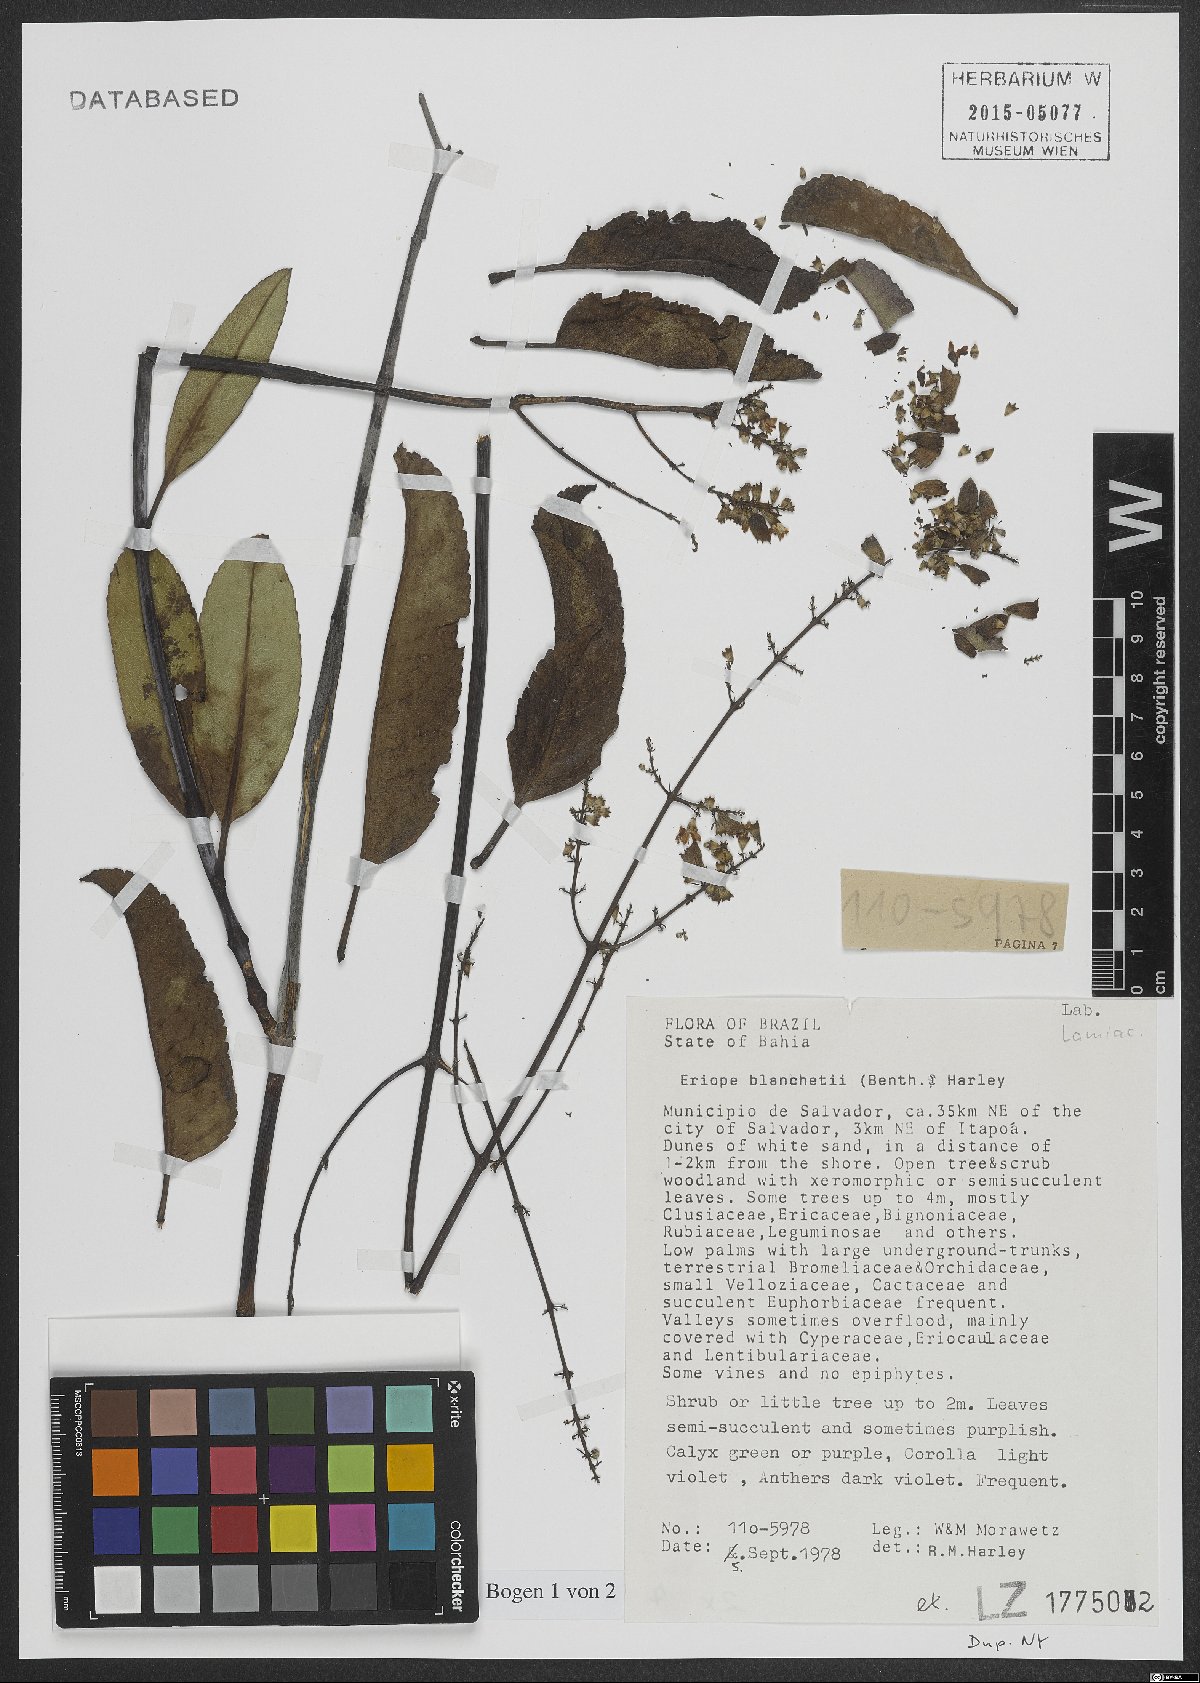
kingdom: Plantae
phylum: Tracheophyta
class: Magnoliopsida
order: Lamiales
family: Lamiaceae
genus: Eriope
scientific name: Eriope blanchetii
